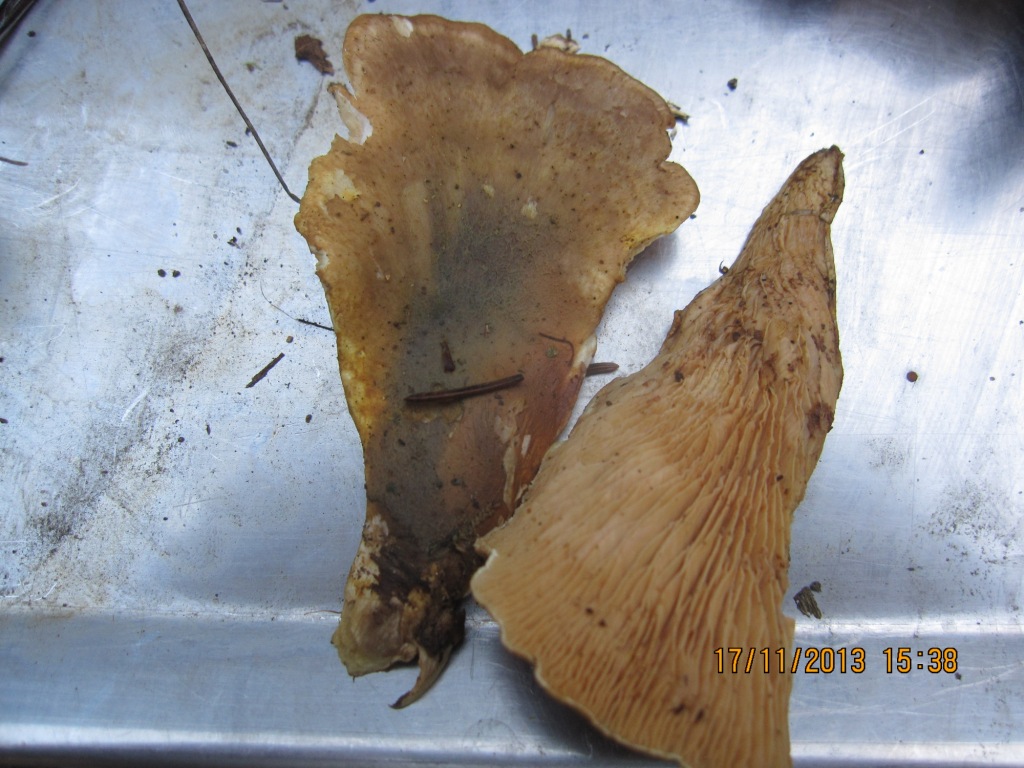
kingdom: Fungi
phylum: Basidiomycota
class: Agaricomycetes
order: Boletales
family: Tapinellaceae
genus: Tapinella
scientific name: Tapinella panuoides
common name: tømmer-viftesvamp
